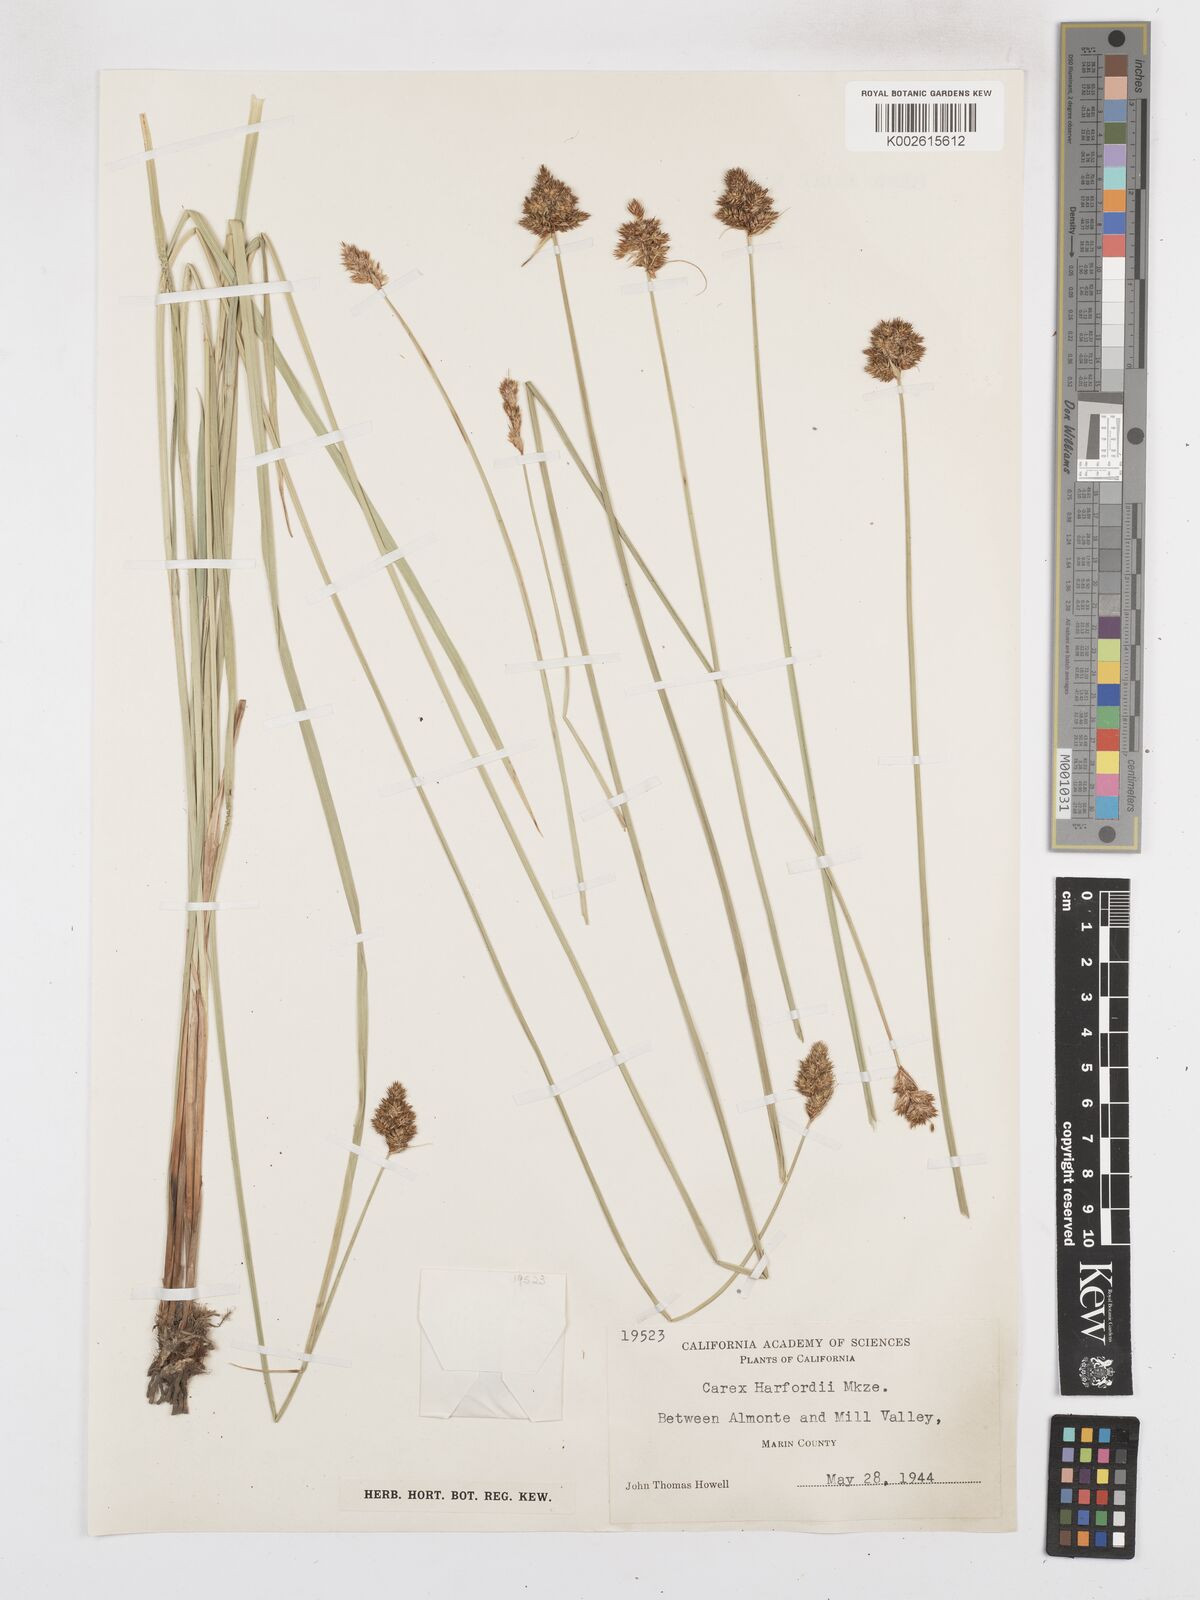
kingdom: Plantae
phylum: Tracheophyta
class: Liliopsida
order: Poales
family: Cyperaceae
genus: Carex
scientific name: Carex harfordii
